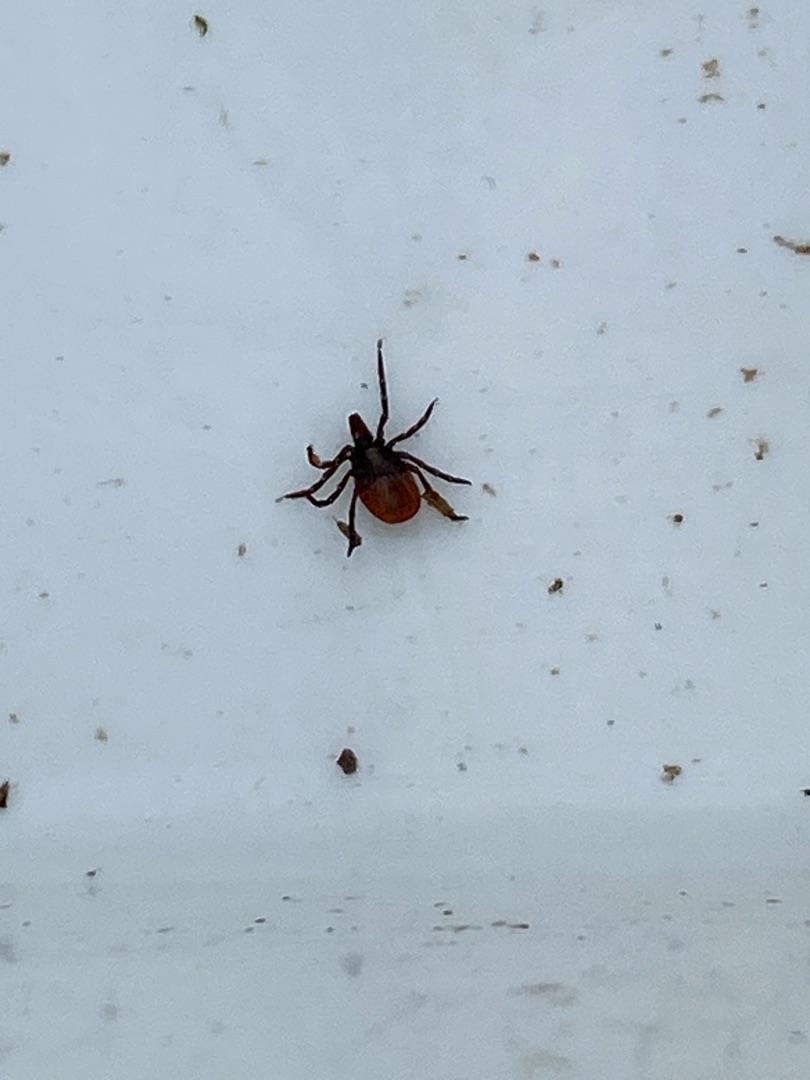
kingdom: Animalia
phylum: Arthropoda
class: Arachnida
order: Ixodida
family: Ixodidae
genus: Ixodes
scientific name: Ixodes ricinus
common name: Skovflåt
